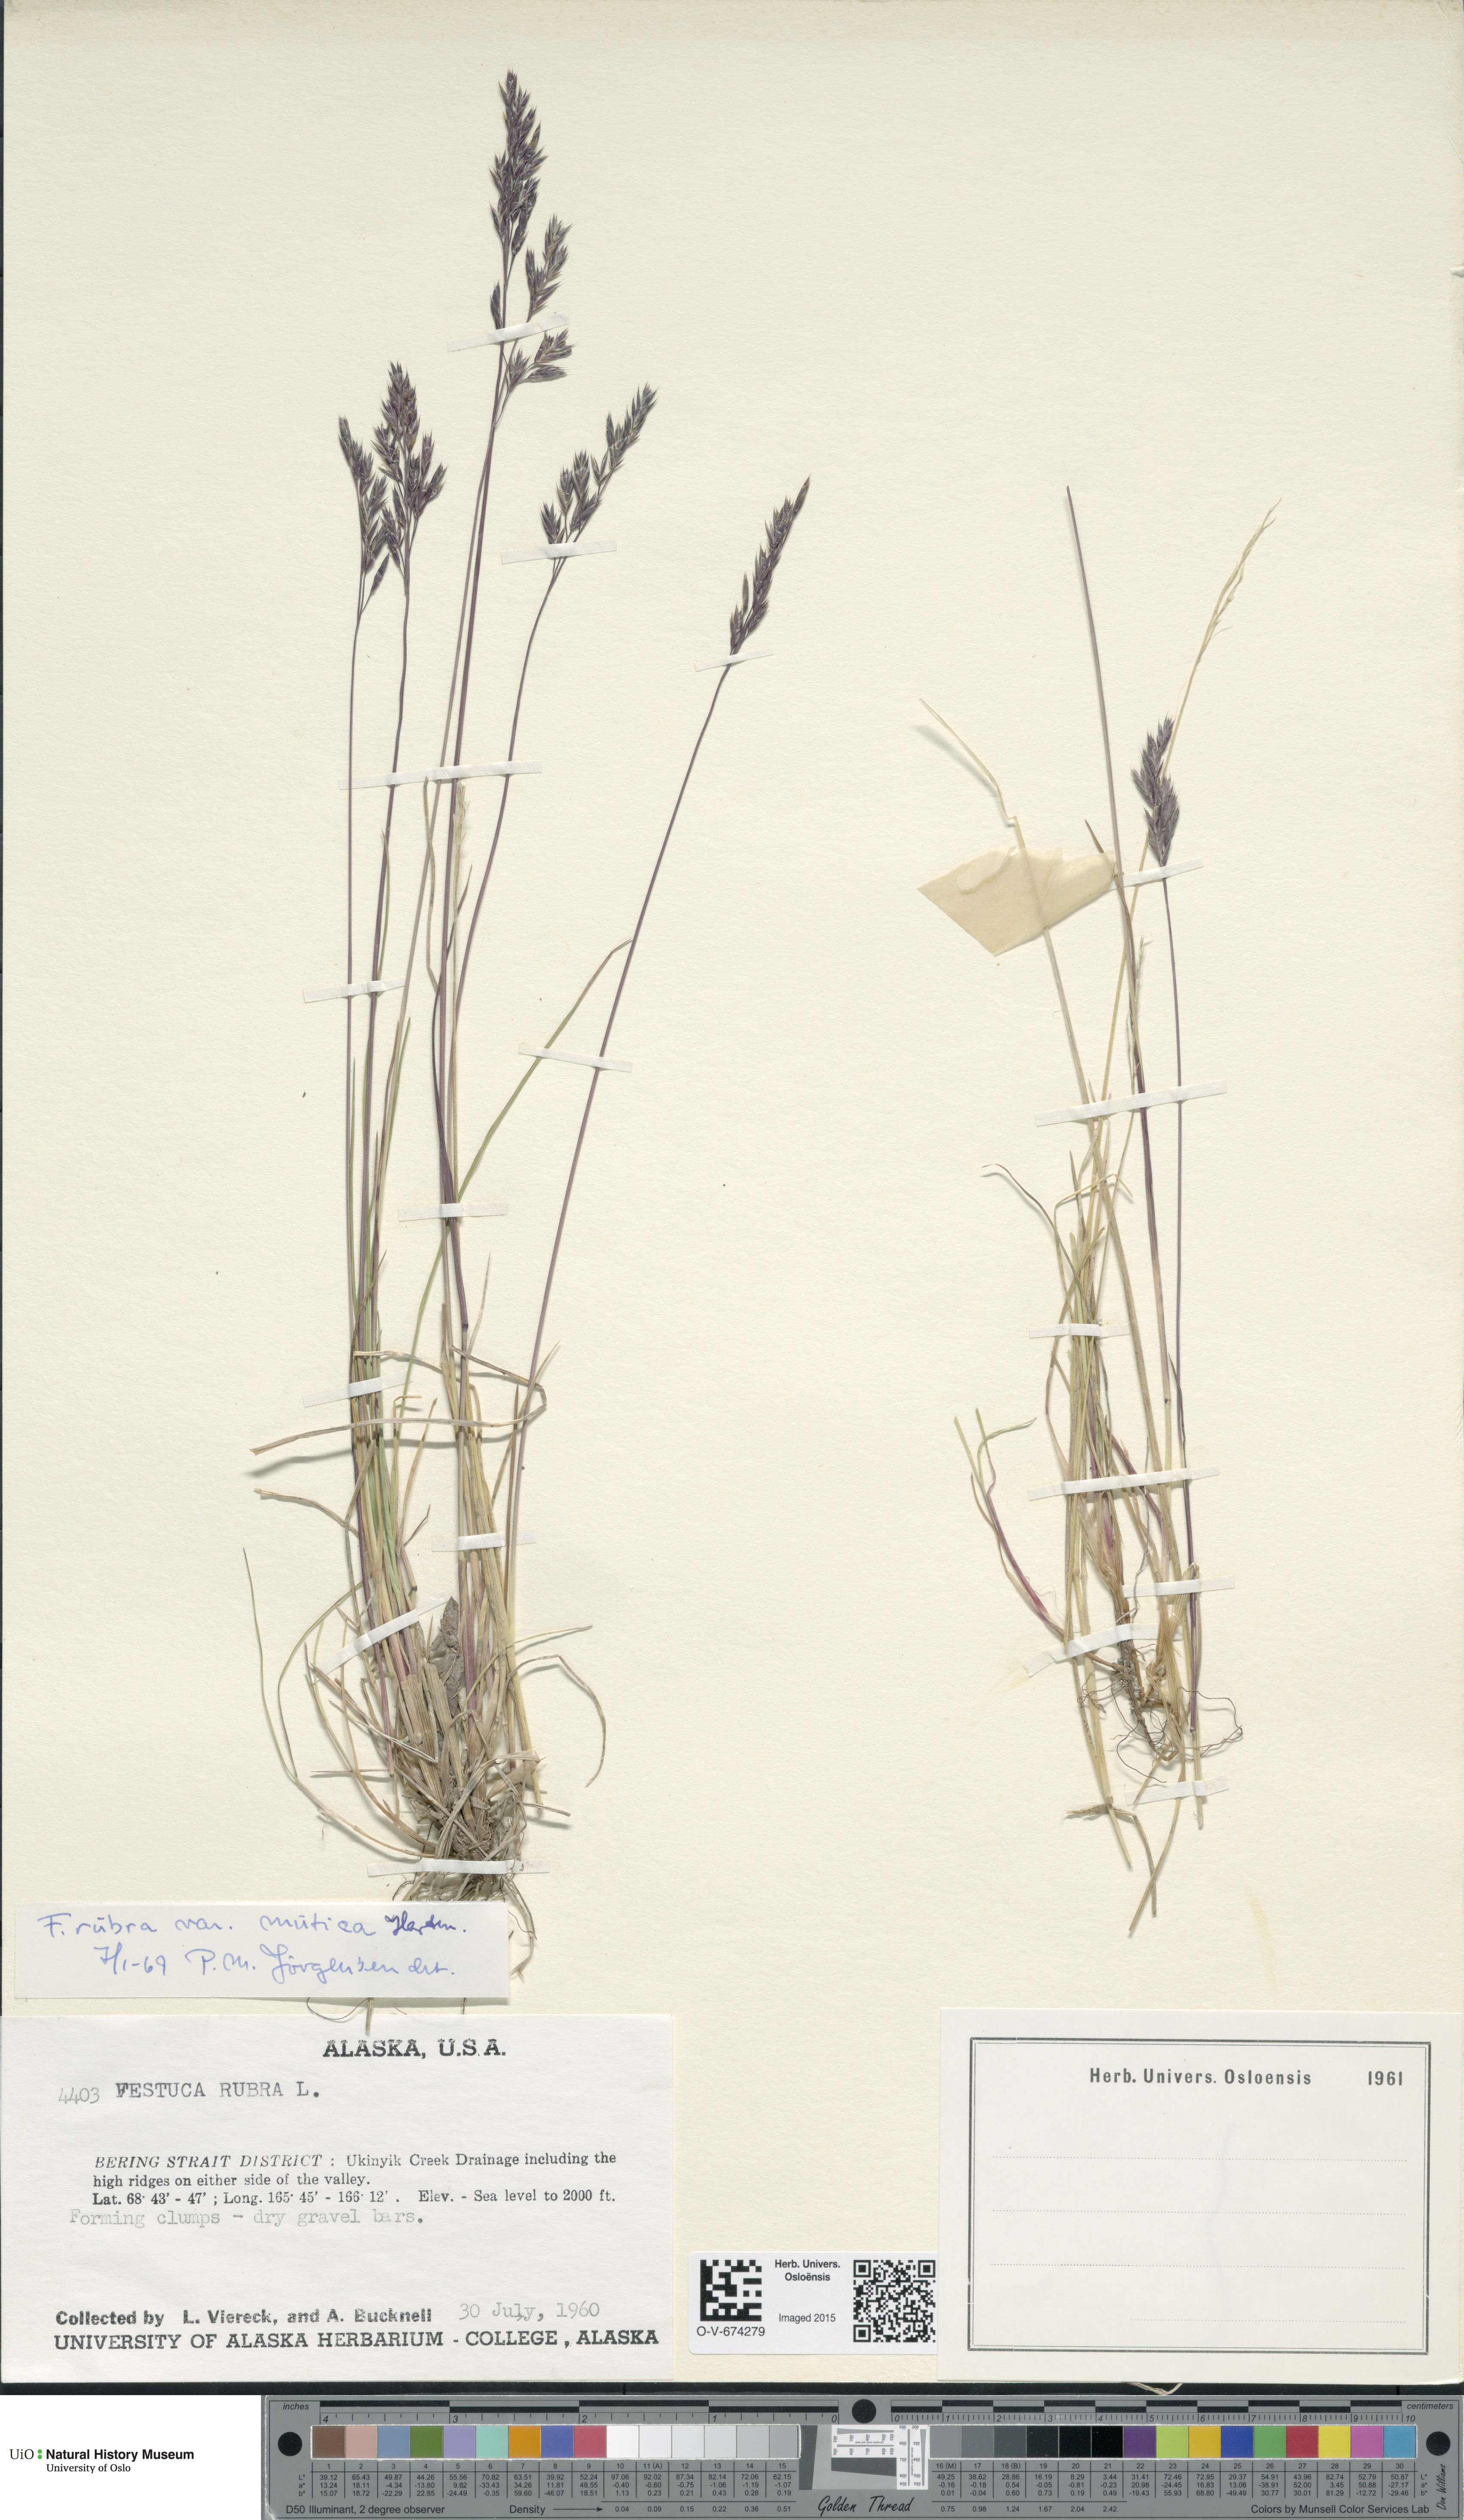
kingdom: Plantae
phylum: Tracheophyta
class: Liliopsida
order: Poales
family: Poaceae
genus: Festuca
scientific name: Festuca richardsonii
